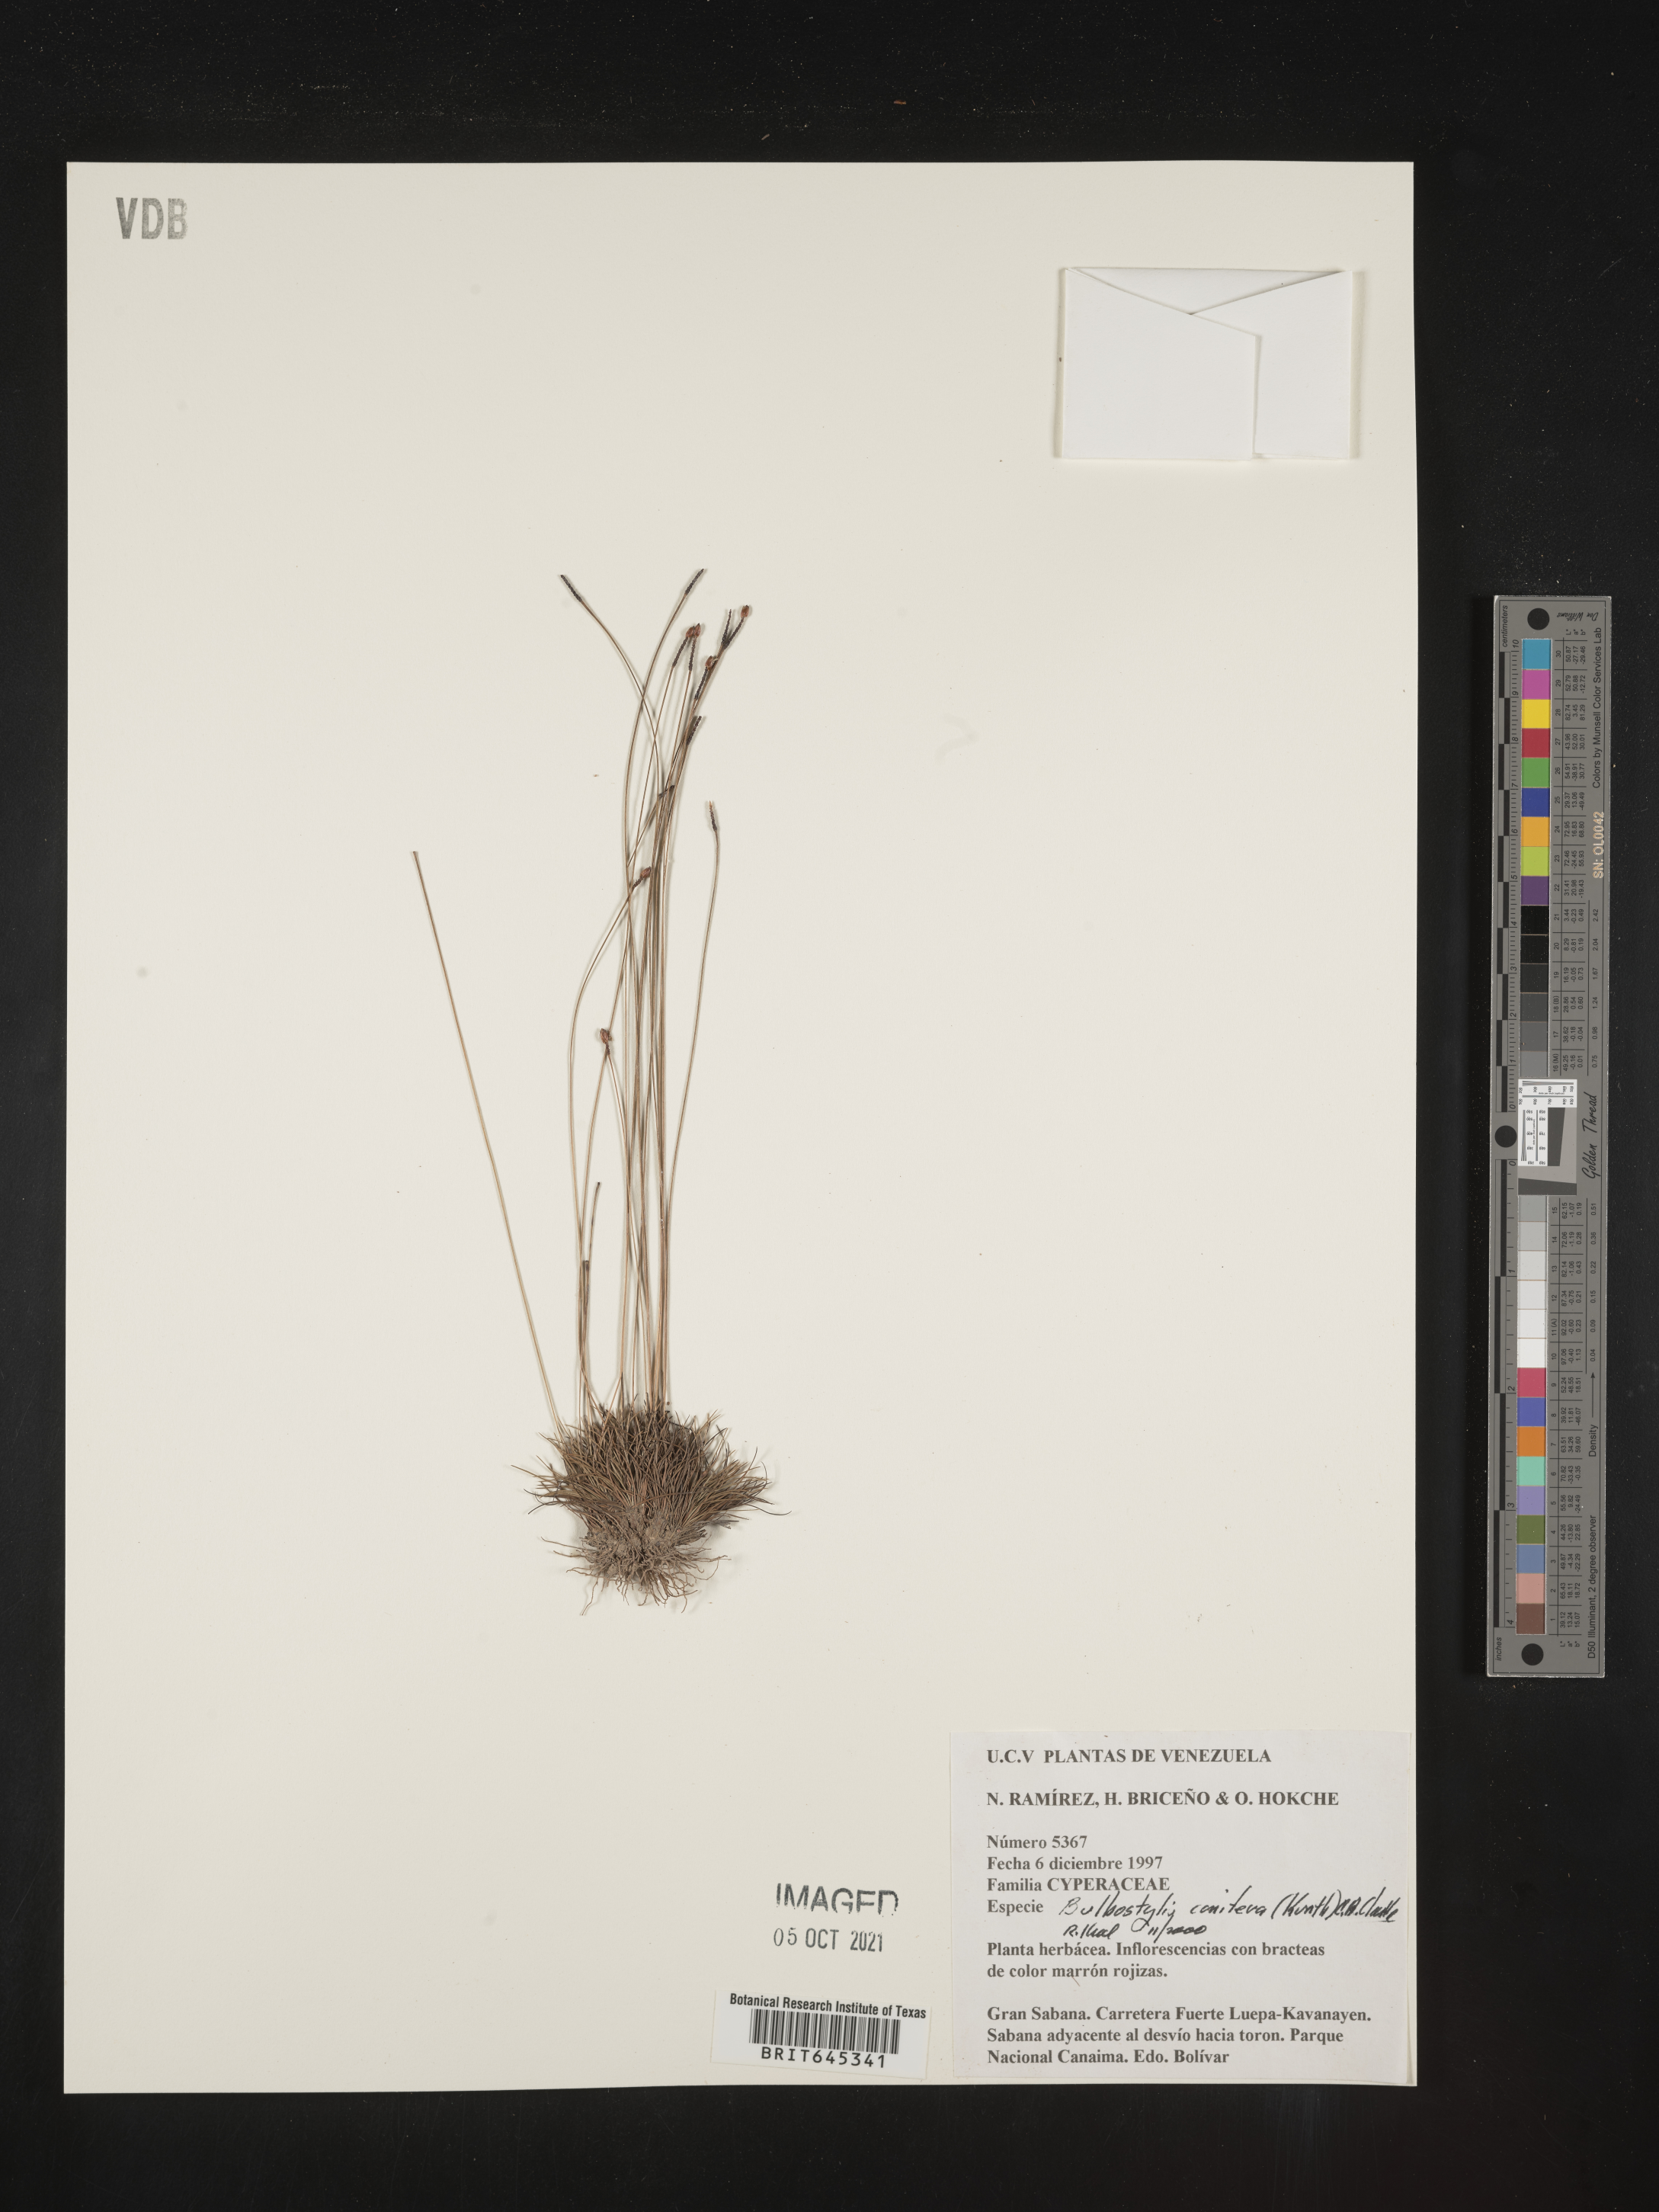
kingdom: Plantae
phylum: Tracheophyta
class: Liliopsida
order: Poales
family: Cyperaceae
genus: Bulbostylis
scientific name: Bulbostylis conifera
